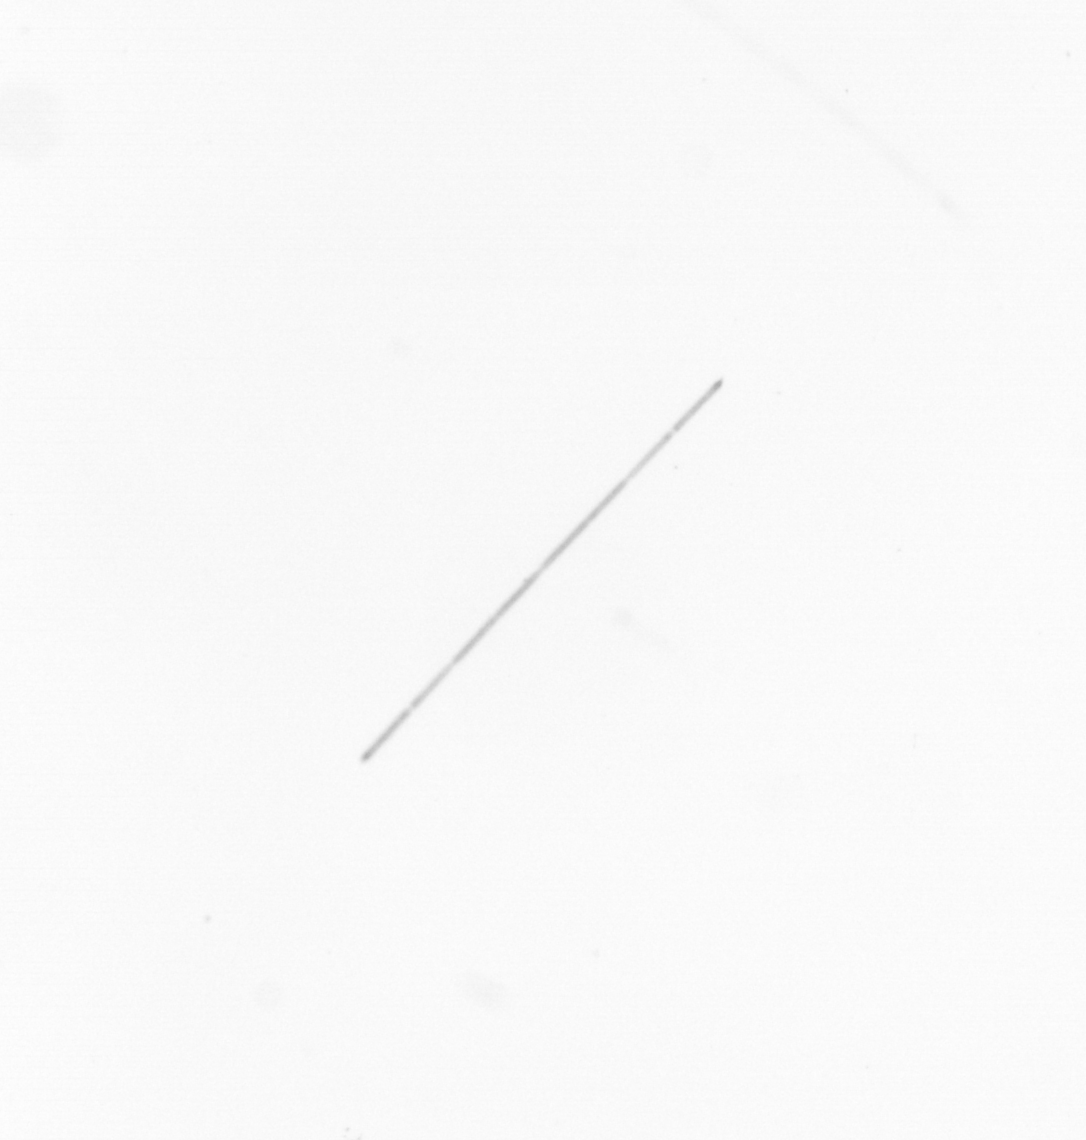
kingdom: Chromista
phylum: Ochrophyta
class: Bacillariophyceae
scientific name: Bacillariophyceae
